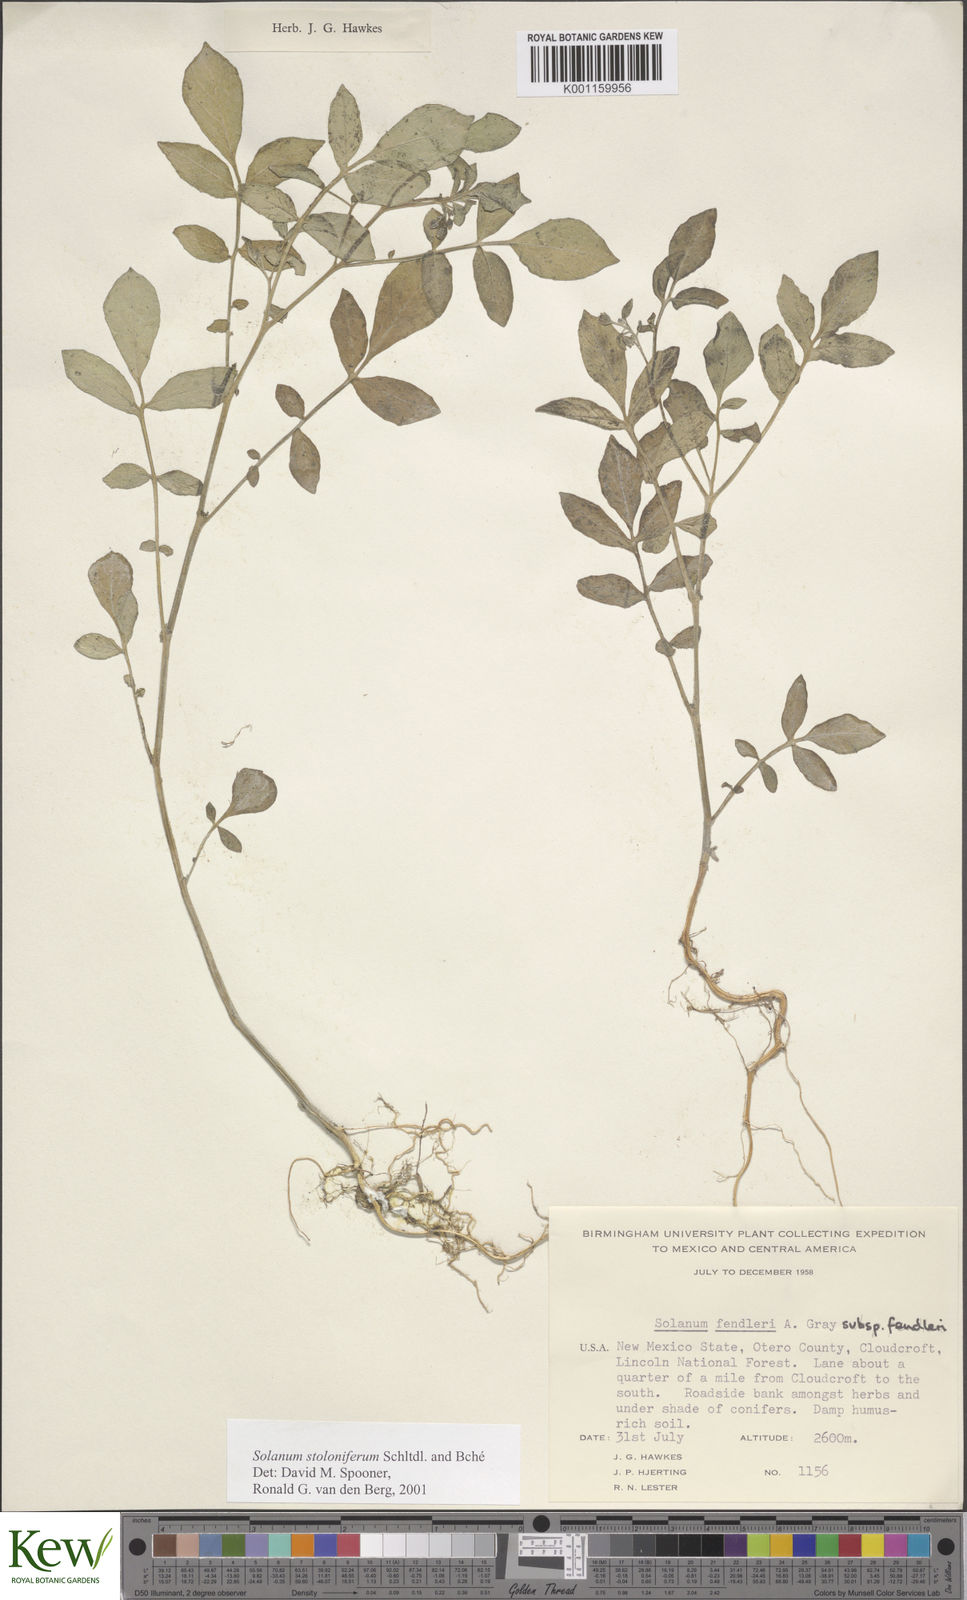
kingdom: Plantae
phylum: Tracheophyta
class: Magnoliopsida
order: Solanales
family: Solanaceae
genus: Solanum
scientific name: Solanum stoloniferum
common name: Fendler's nighshade
